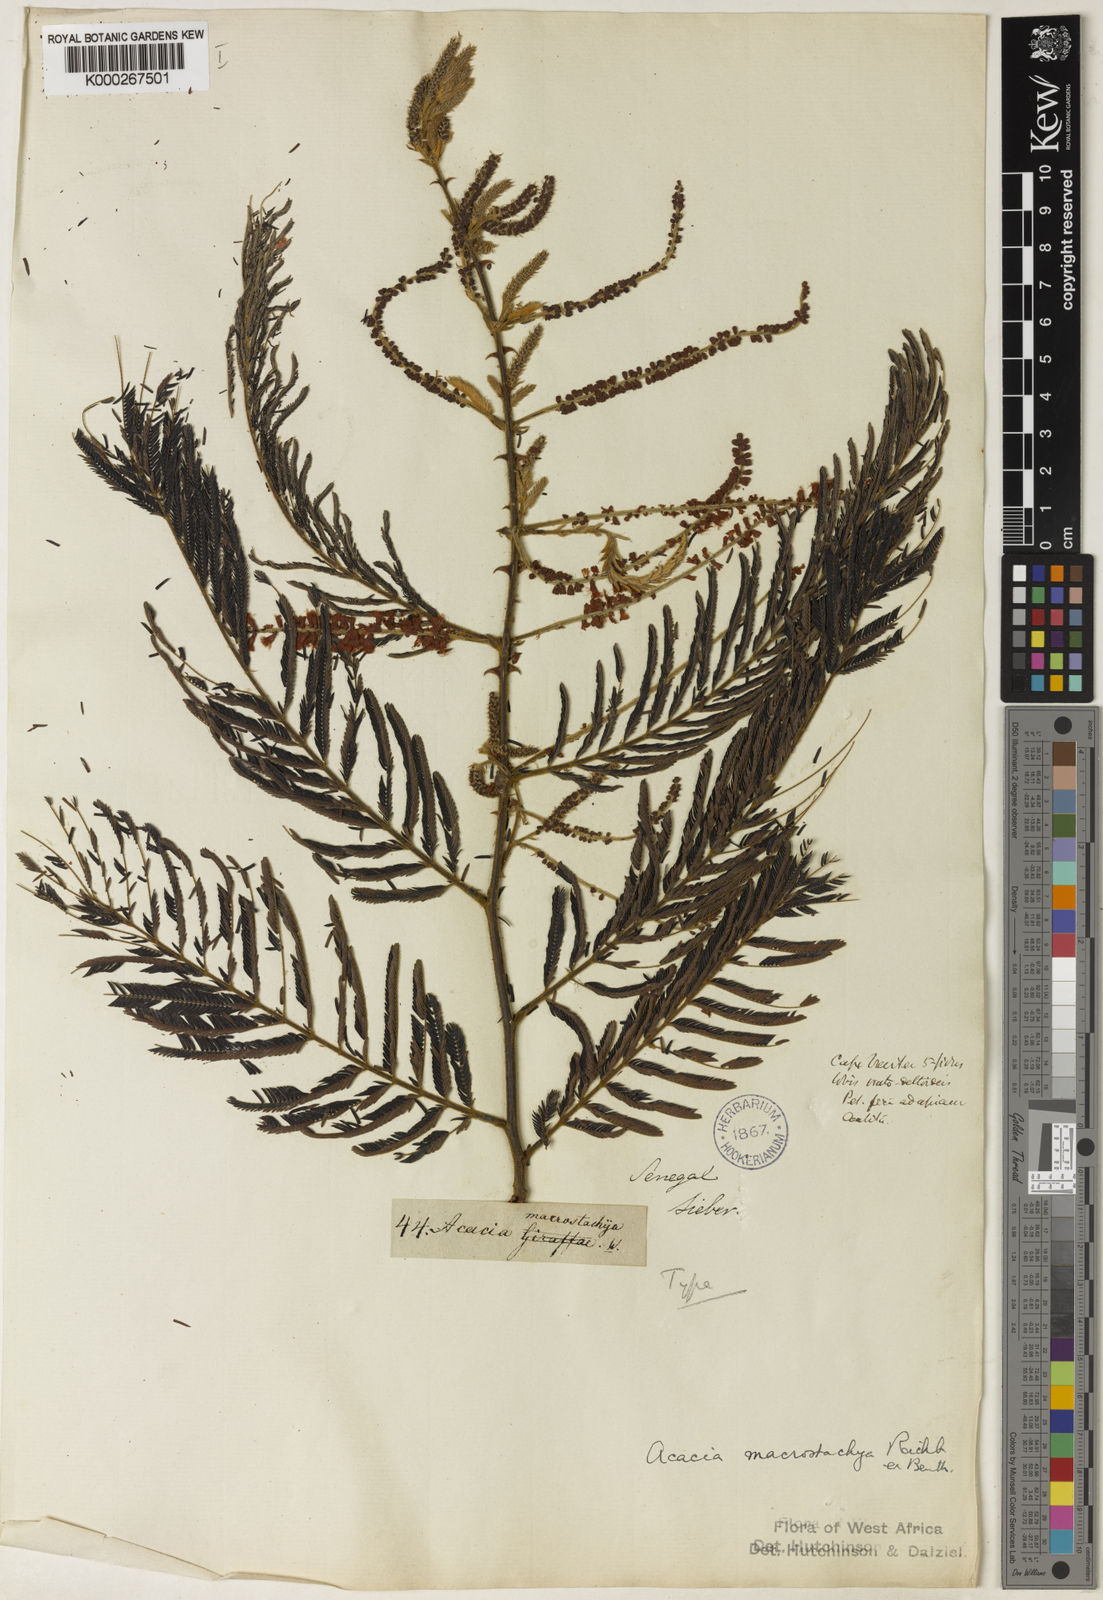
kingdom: Plantae
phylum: Tracheophyta
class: Magnoliopsida
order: Fabales
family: Fabaceae
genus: Acacia
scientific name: Acacia
